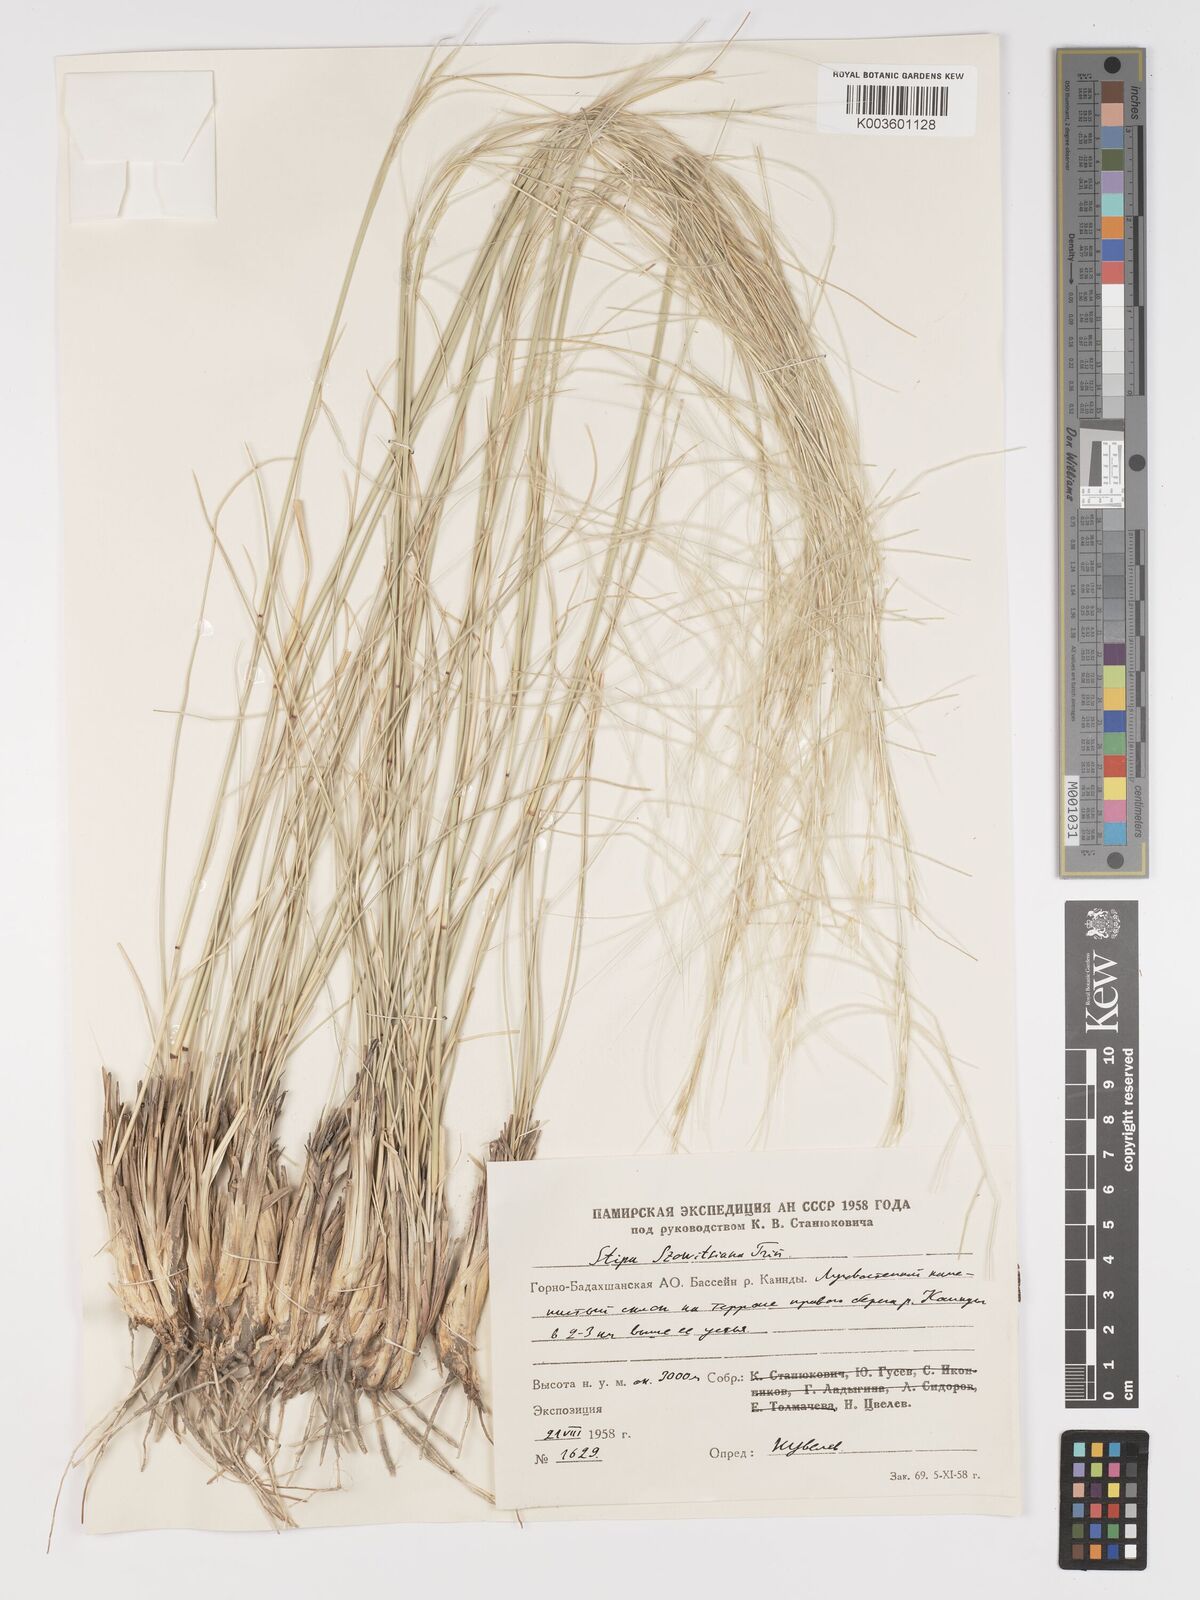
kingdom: Plantae
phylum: Tracheophyta
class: Liliopsida
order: Poales
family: Poaceae
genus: Stipa
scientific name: Stipa arabica
